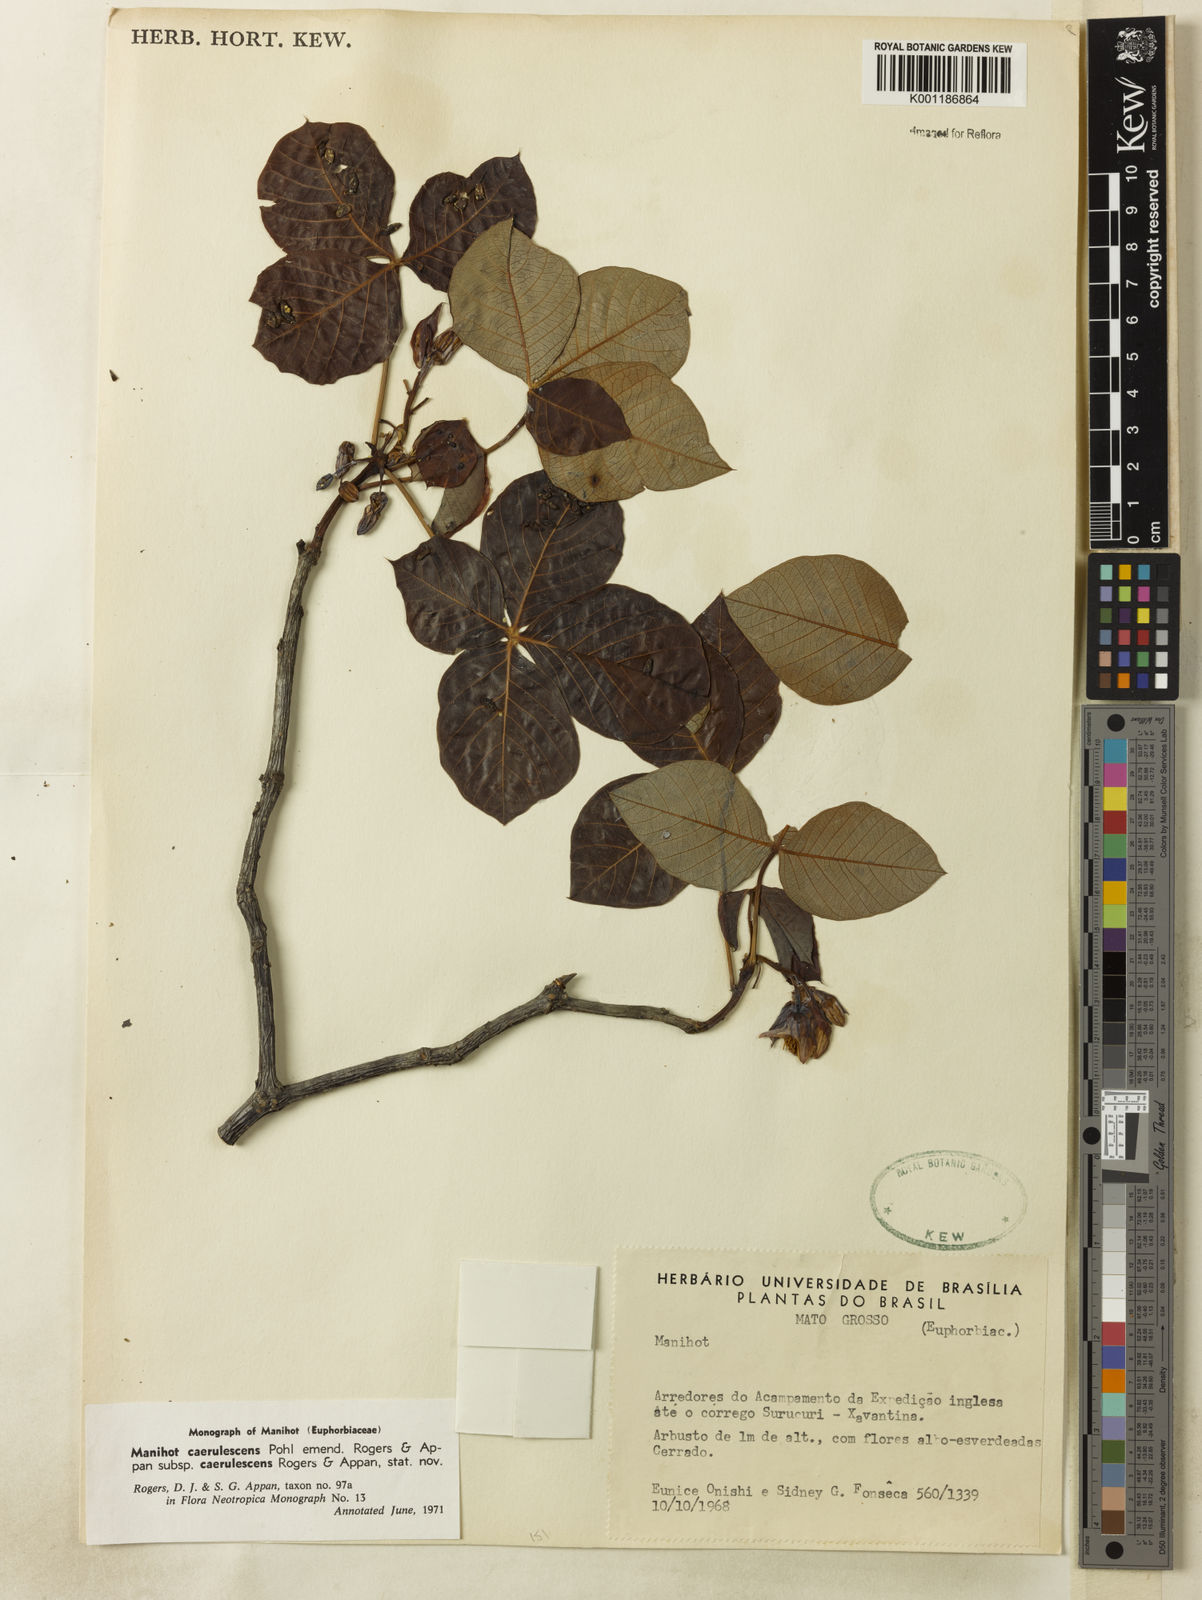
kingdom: Plantae
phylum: Tracheophyta
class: Magnoliopsida
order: Malpighiales
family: Euphorbiaceae
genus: Manihot
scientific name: Manihot caerulescens
